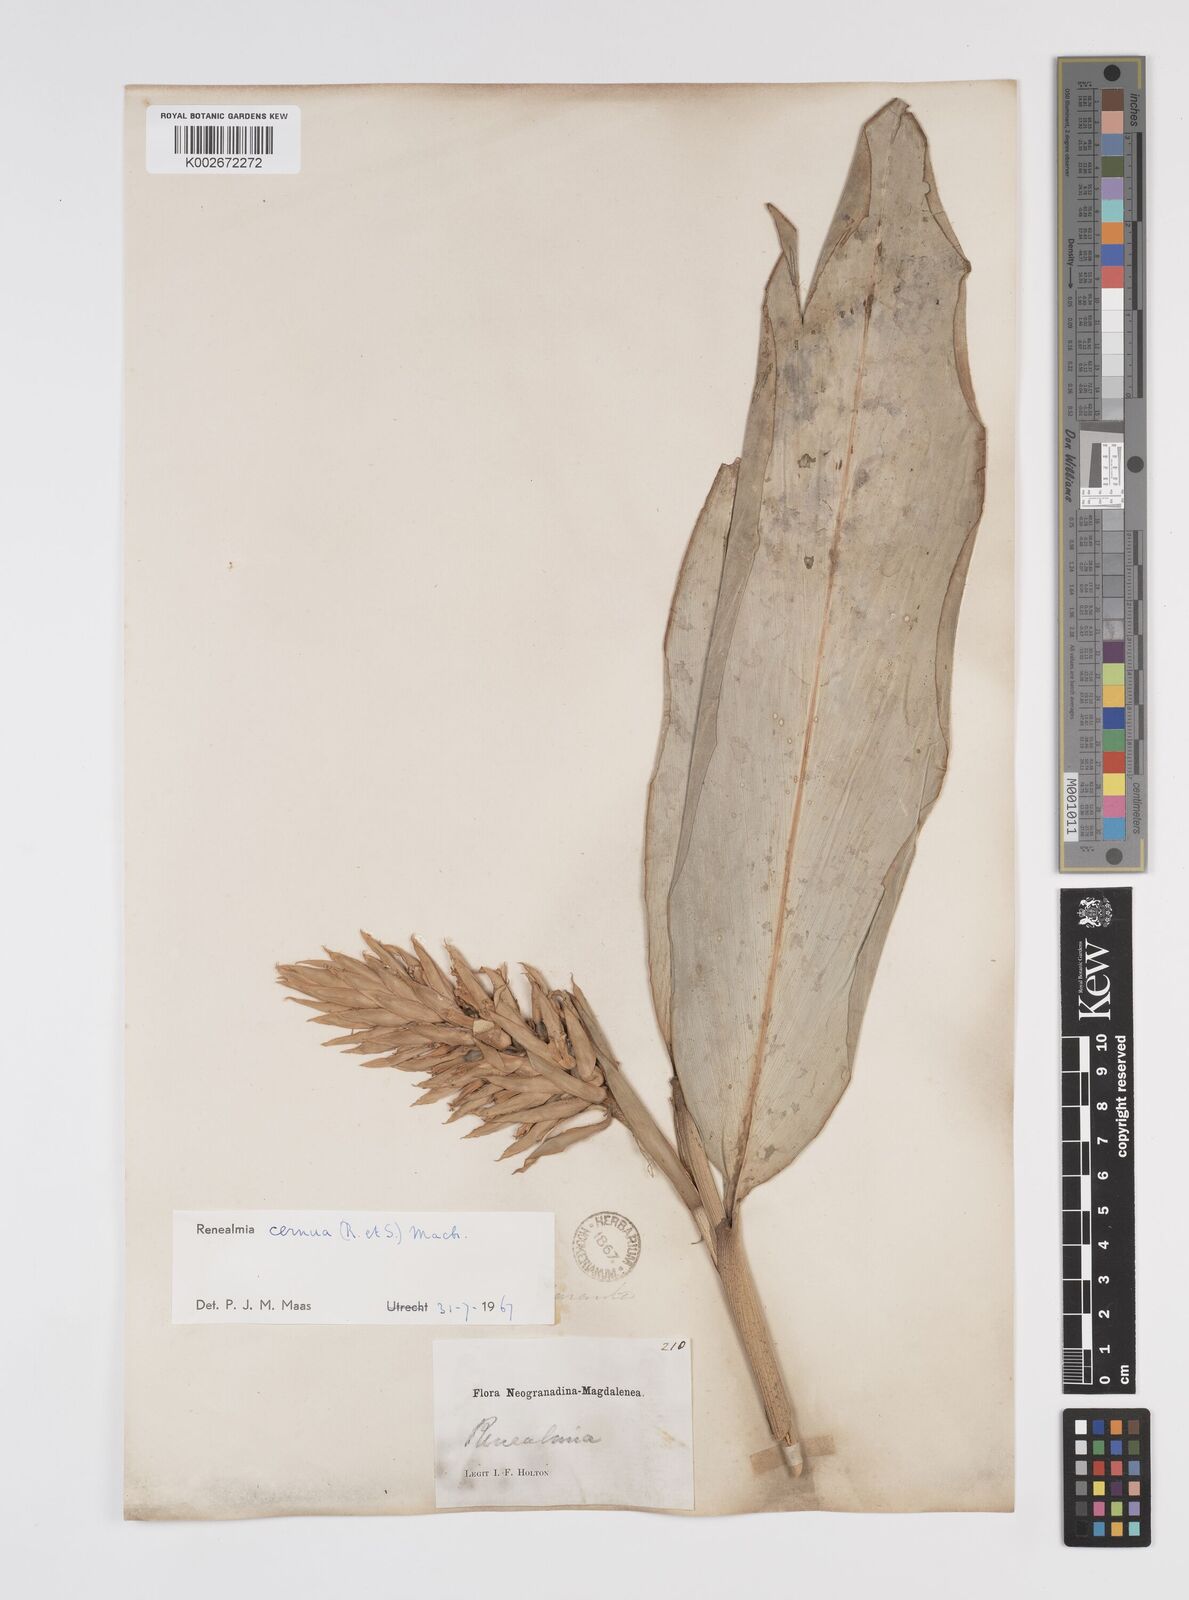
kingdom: Plantae
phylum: Tracheophyta
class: Liliopsida
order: Zingiberales
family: Zingiberaceae
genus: Renealmia
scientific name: Renealmia cernua
